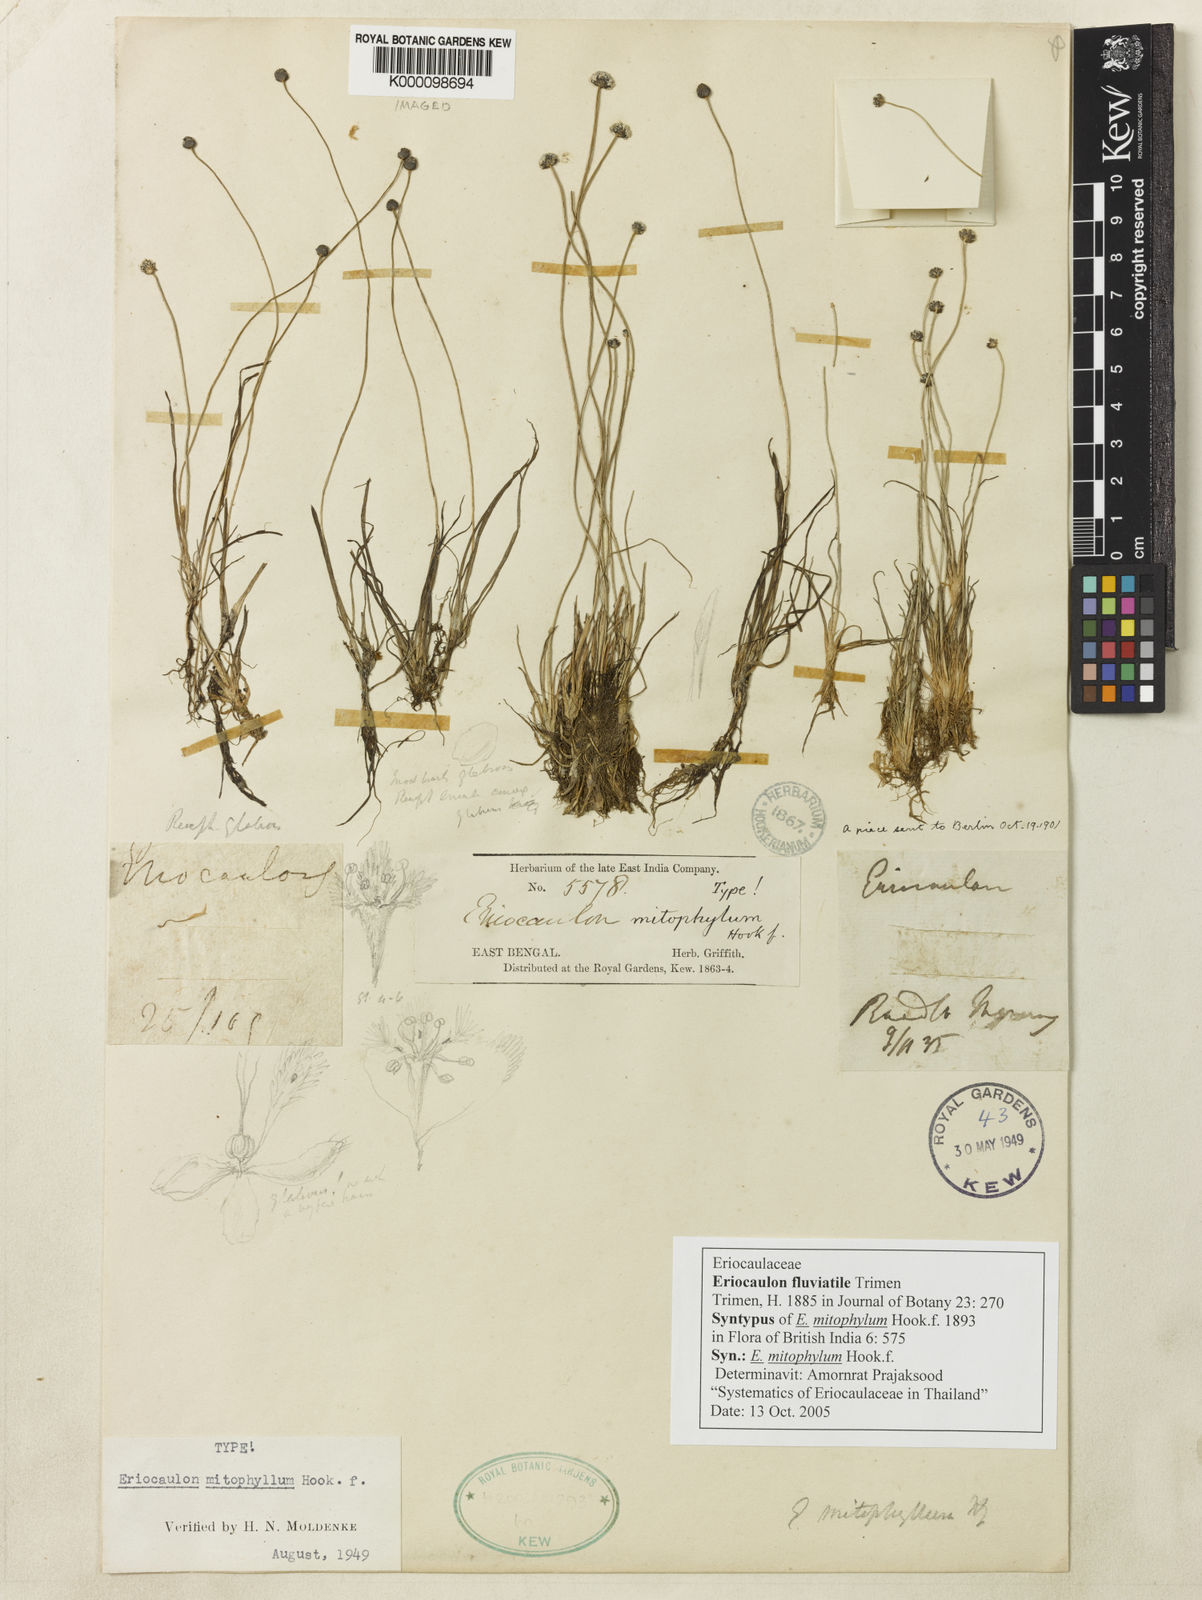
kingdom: Plantae
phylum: Tracheophyta
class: Liliopsida
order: Poales
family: Eriocaulaceae
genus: Eriocaulon
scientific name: Eriocaulon fluviatile
